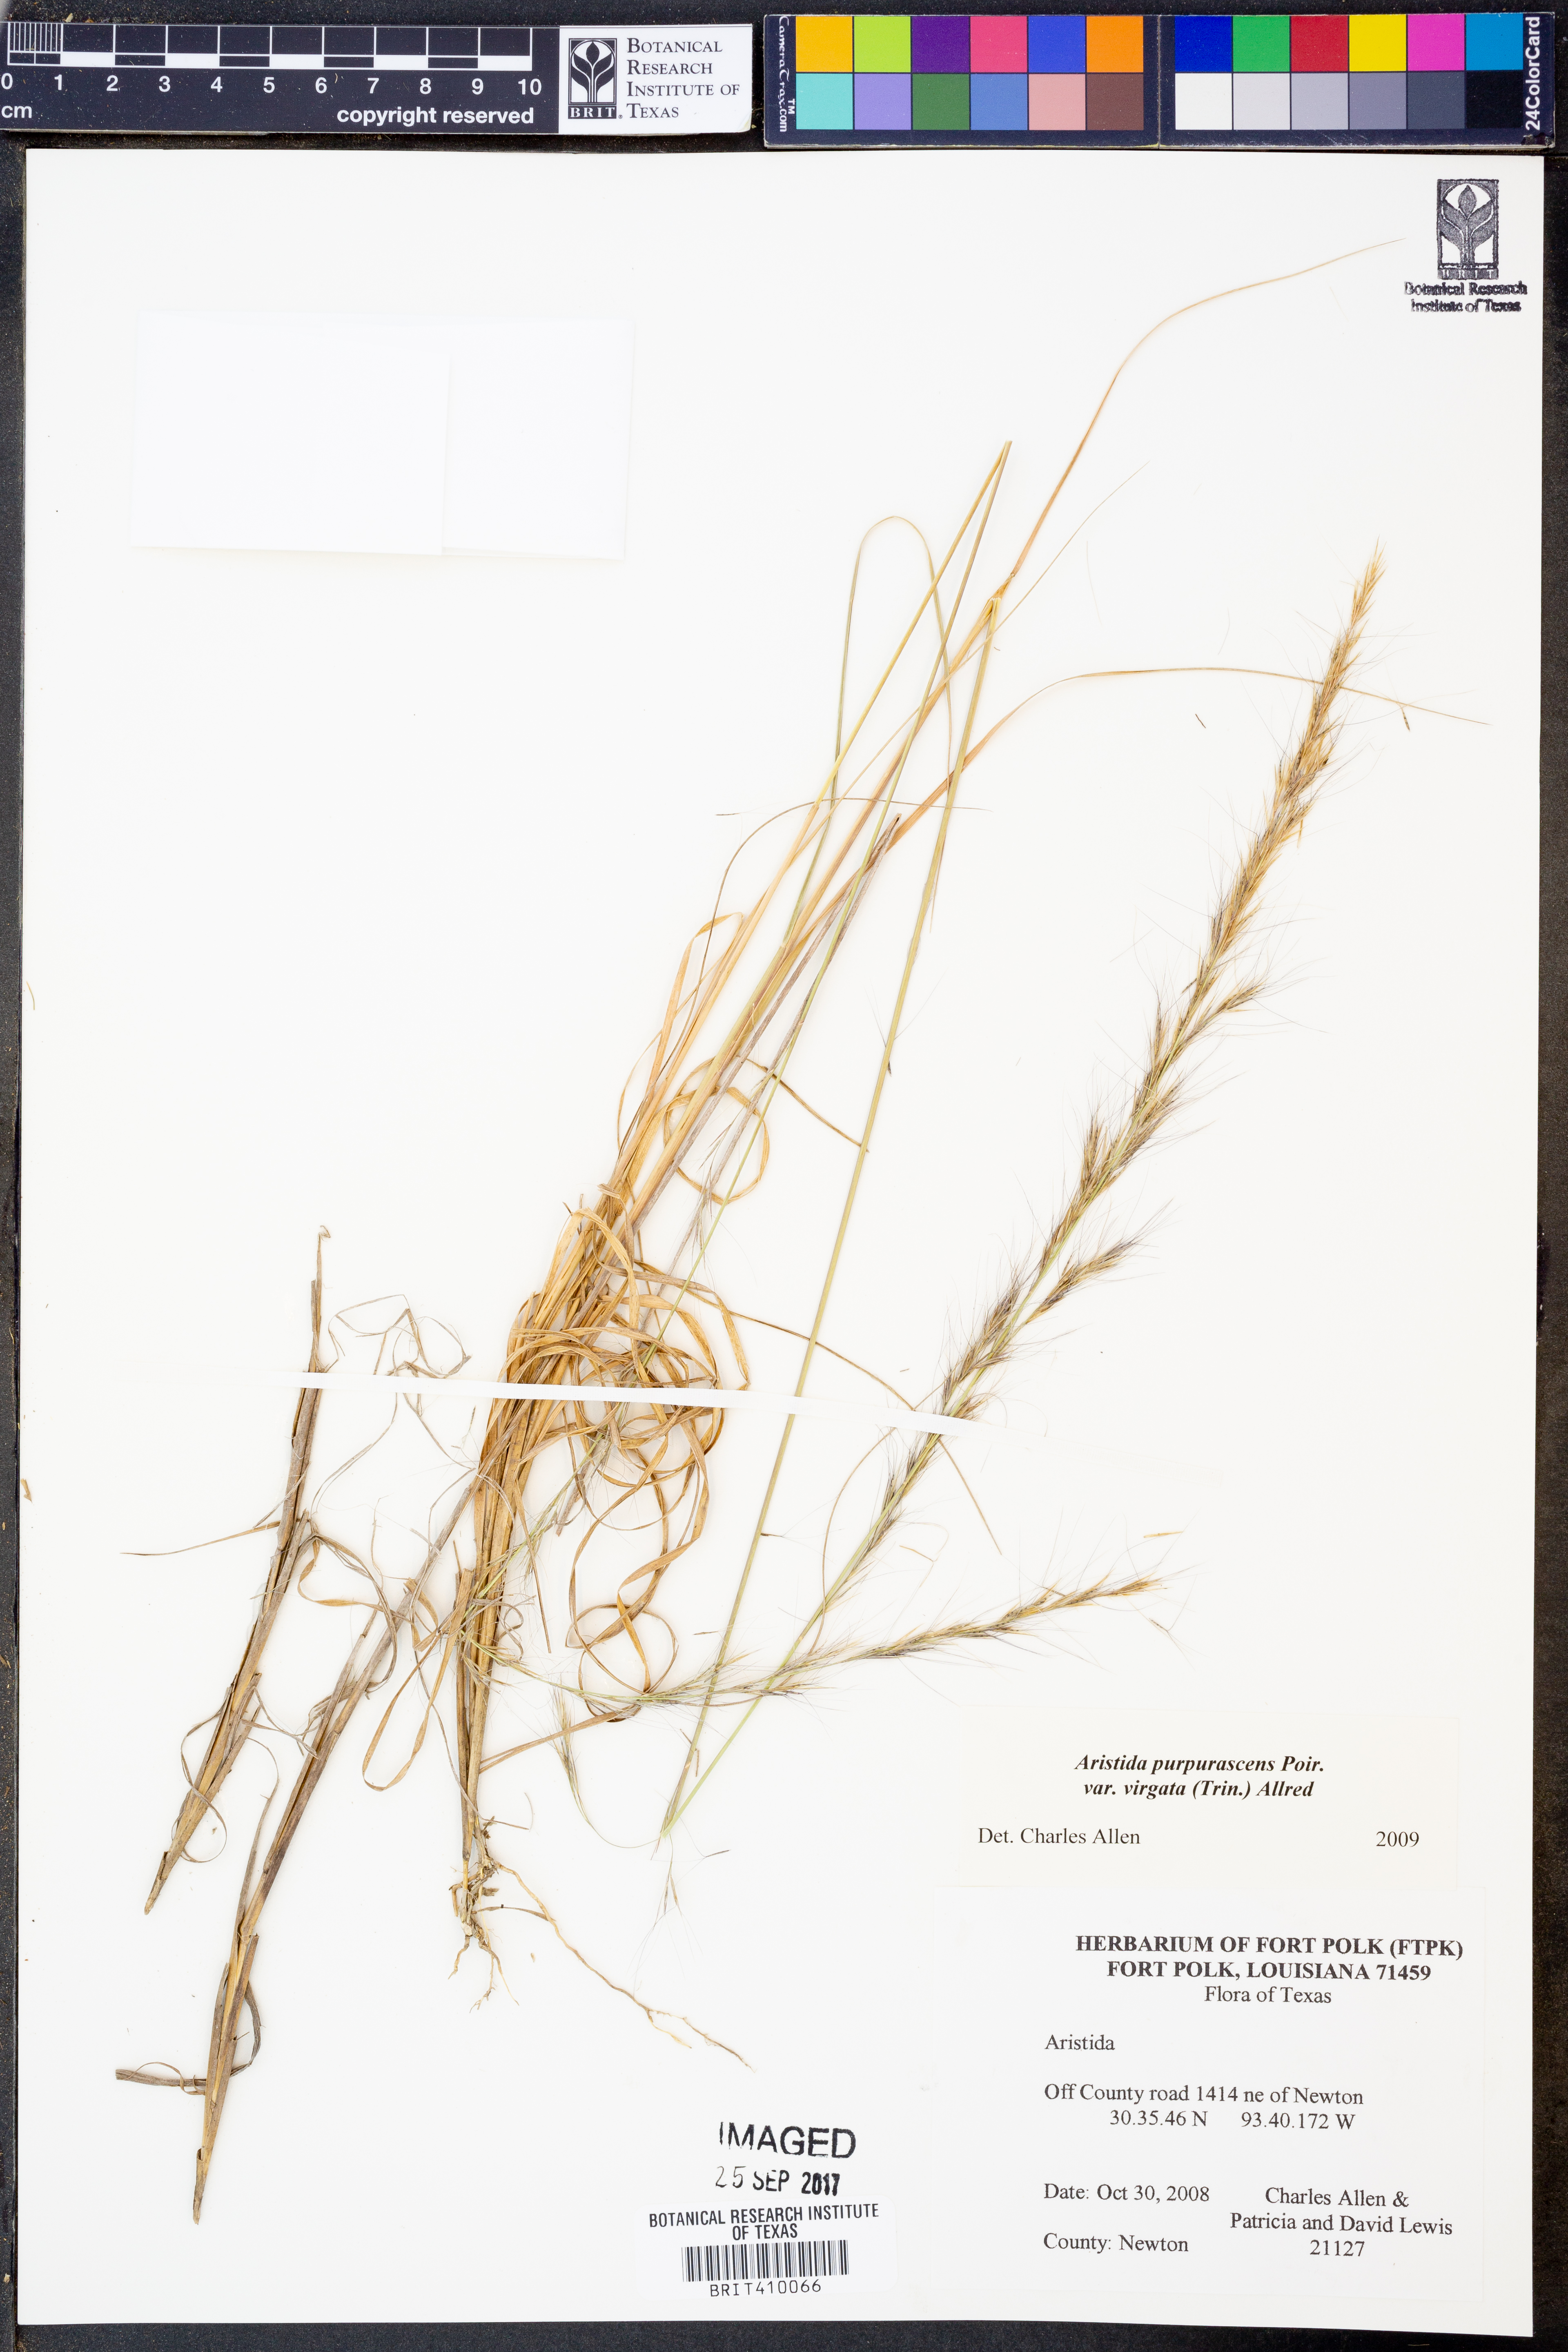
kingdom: Plantae
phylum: Tracheophyta
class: Liliopsida
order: Poales
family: Poaceae
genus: Aristida
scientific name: Aristida virgata
